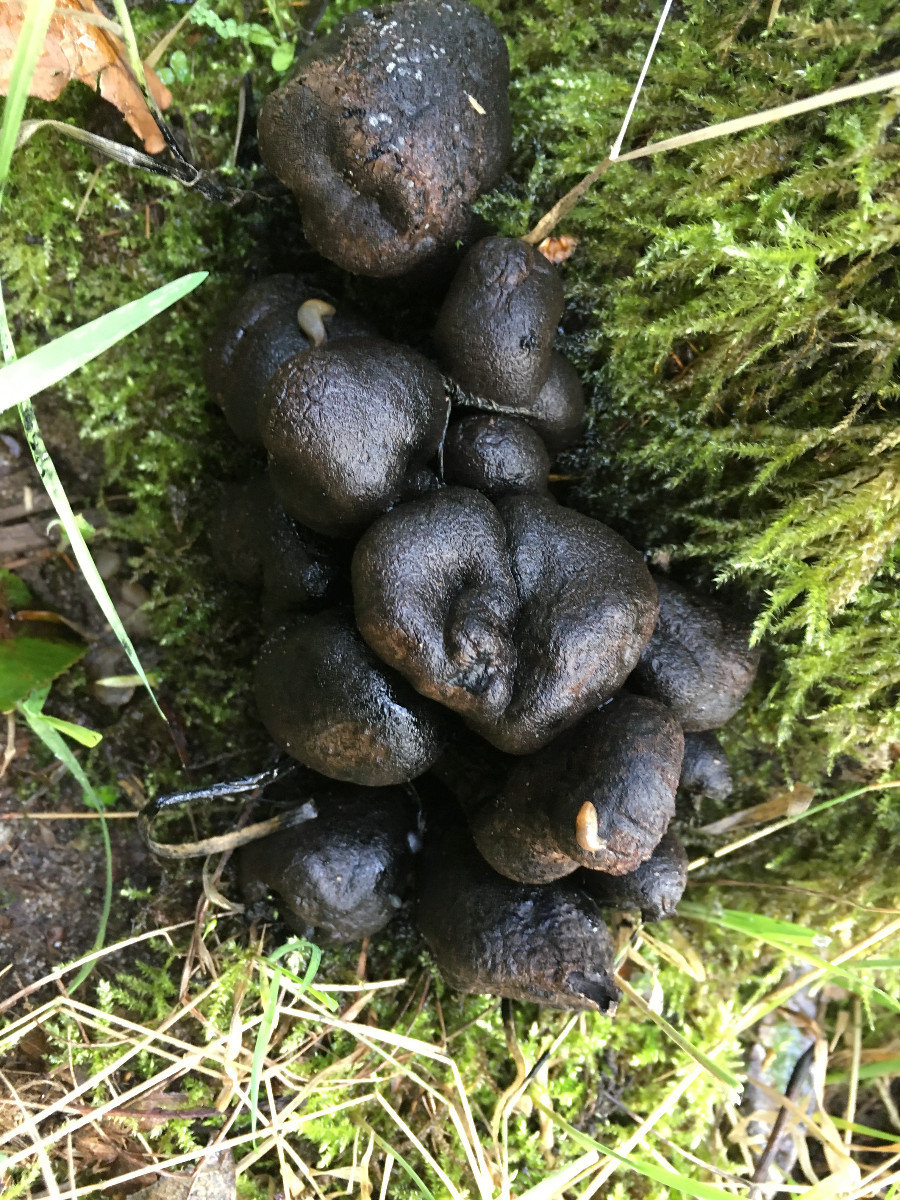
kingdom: Fungi
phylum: Ascomycota
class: Sordariomycetes
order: Xylariales
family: Xylariaceae
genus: Xylaria
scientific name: Xylaria polymorpha
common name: kølle-stødsvamp
